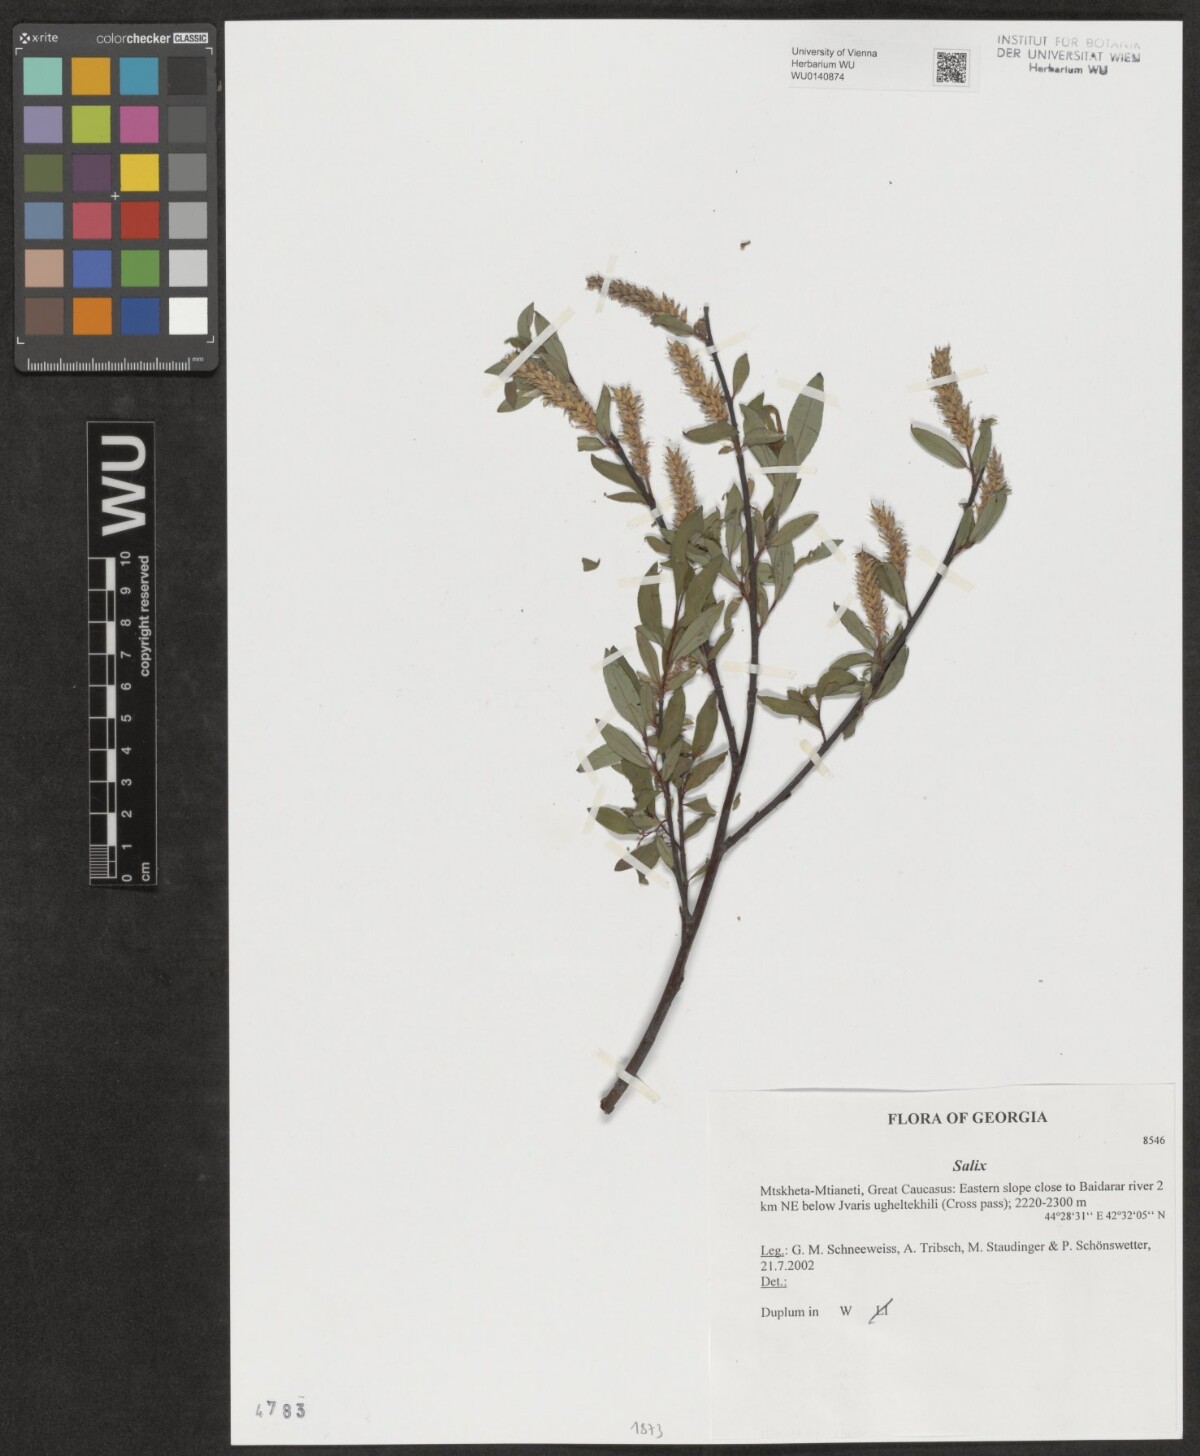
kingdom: Plantae
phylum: Tracheophyta
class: Magnoliopsida
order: Malpighiales
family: Salicaceae
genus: Salix
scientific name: Salix
